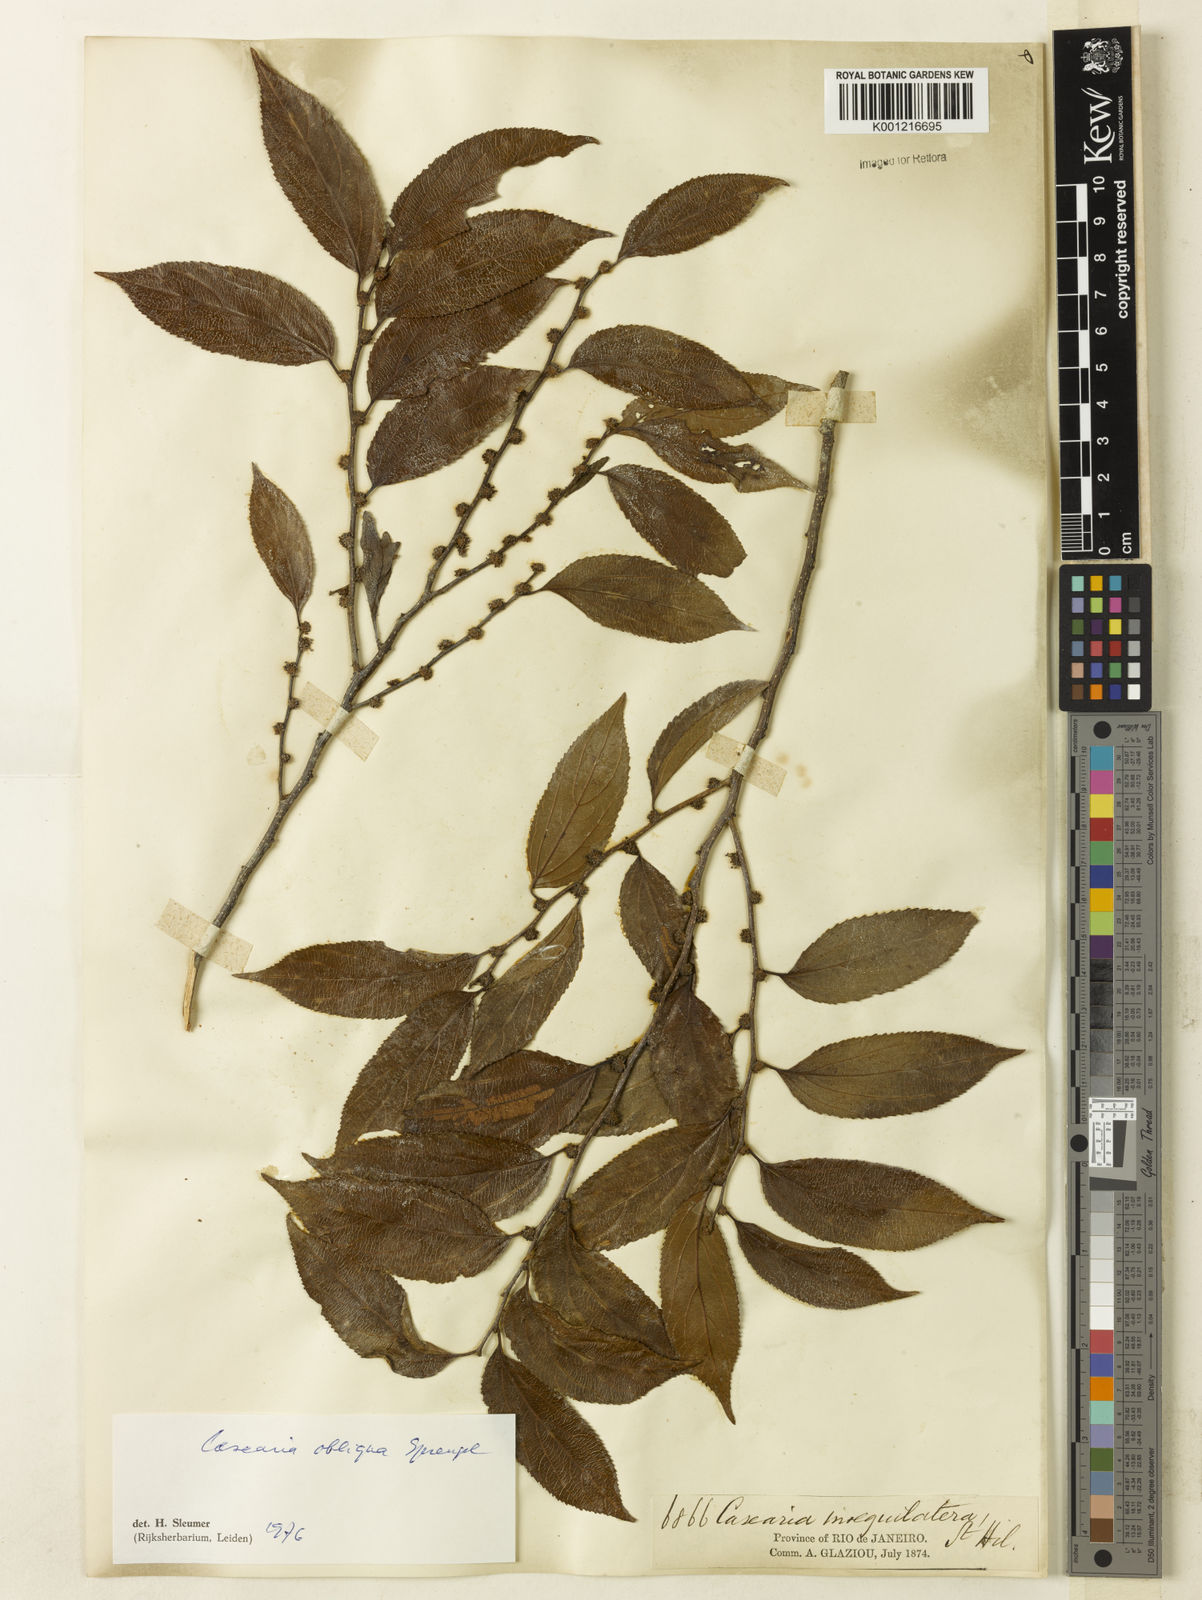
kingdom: Plantae
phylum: Tracheophyta
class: Magnoliopsida
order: Malpighiales
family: Salicaceae
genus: Casearia
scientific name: Casearia obliqua
